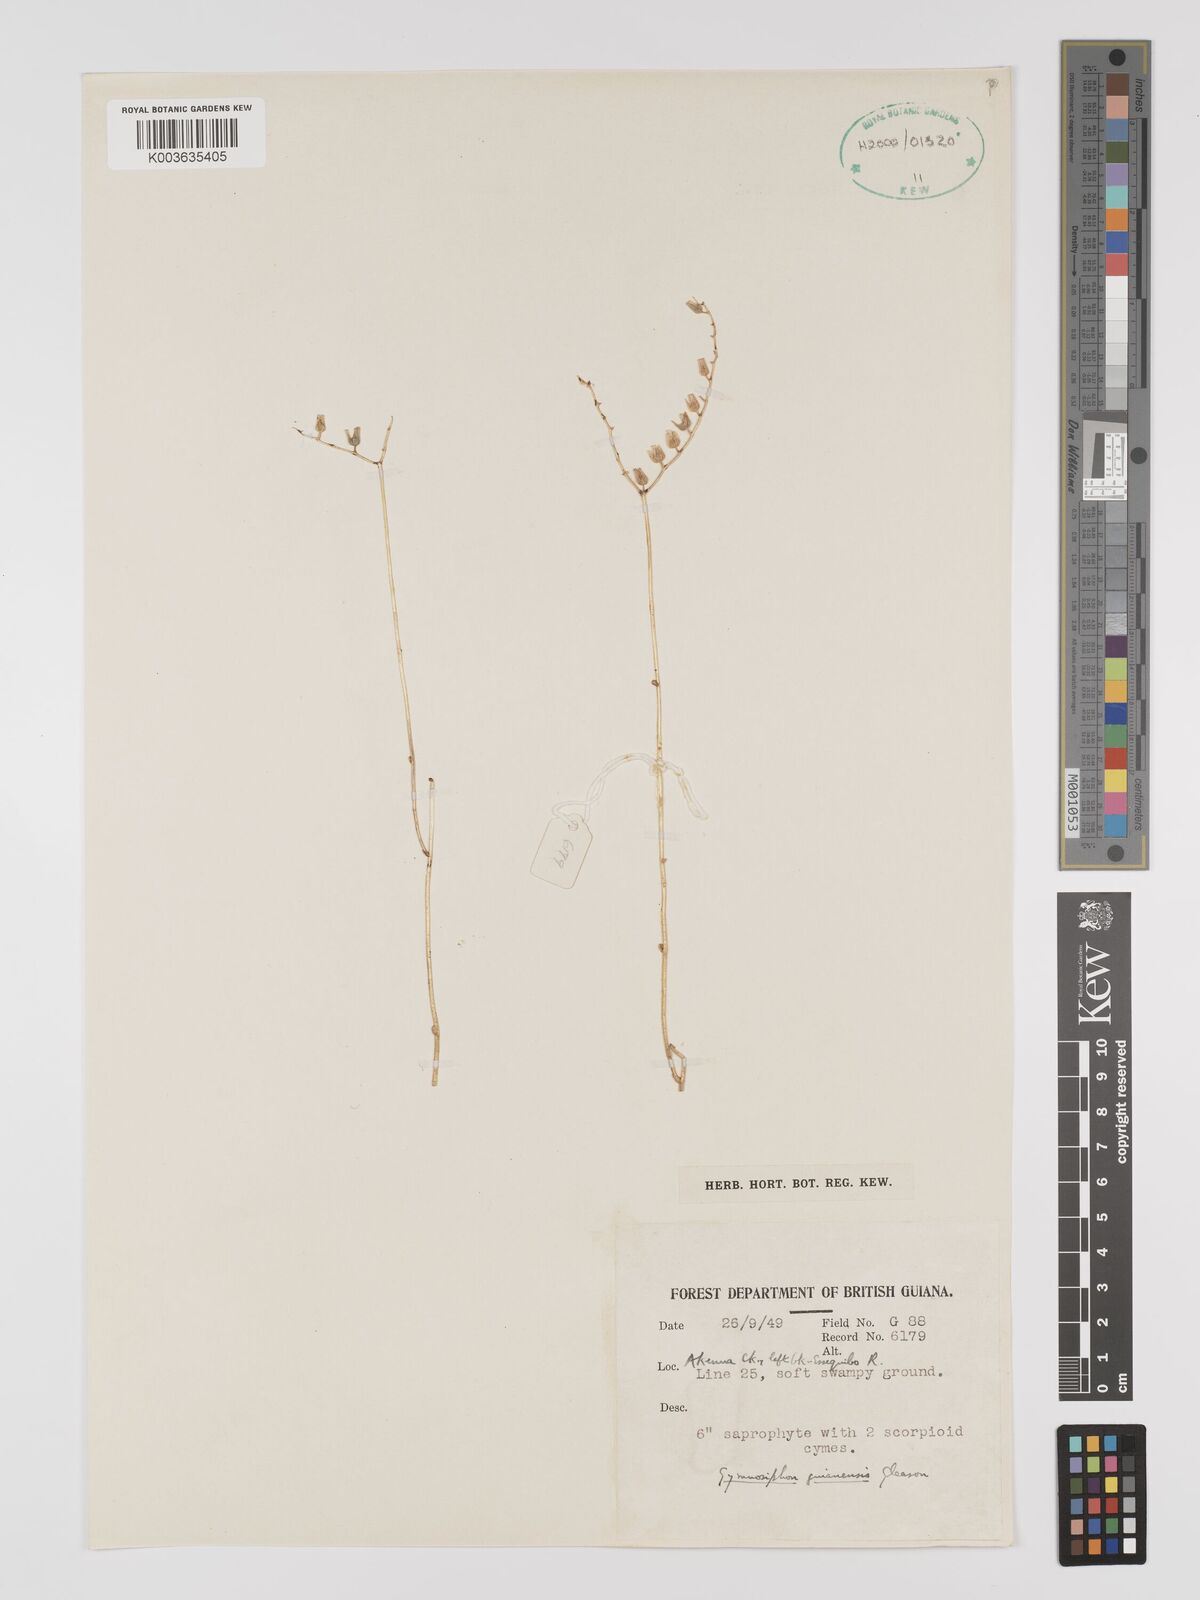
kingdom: Plantae
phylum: Tracheophyta
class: Liliopsida
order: Dioscoreales
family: Burmanniaceae
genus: Gymnosiphon
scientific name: Gymnosiphon guianensis
